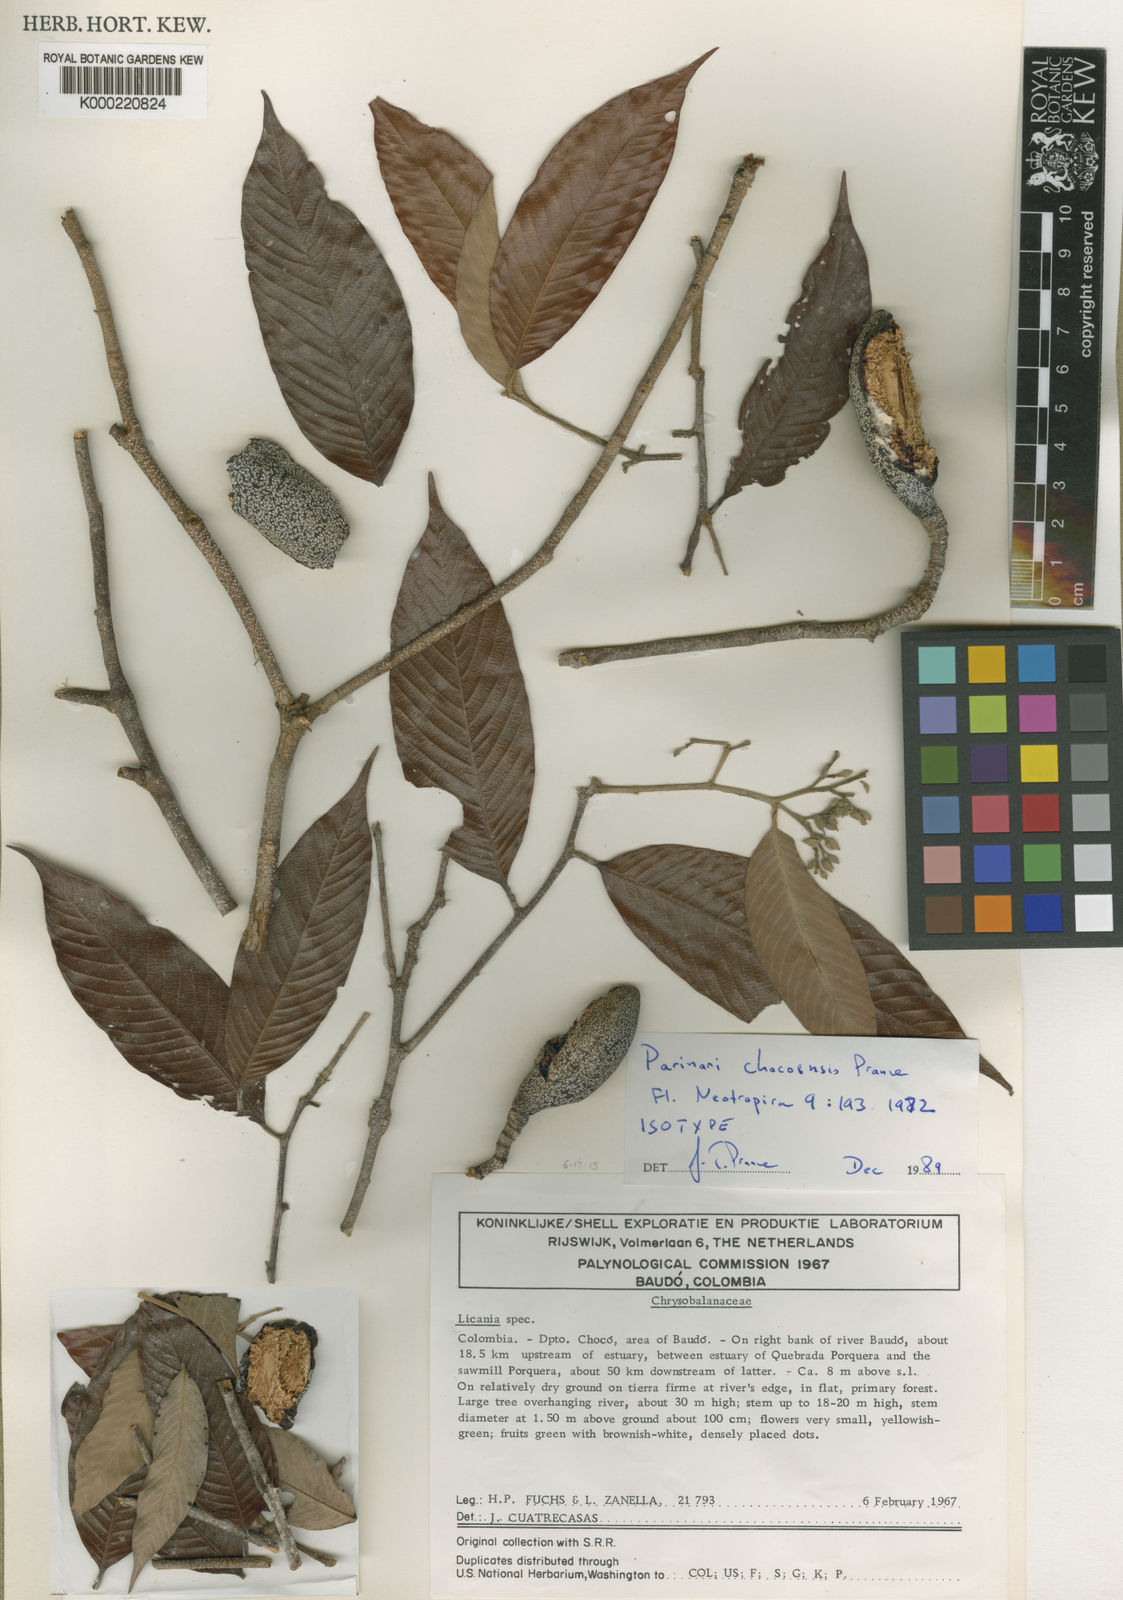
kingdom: Plantae
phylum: Tracheophyta
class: Magnoliopsida
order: Malpighiales
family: Chrysobalanaceae
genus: Parinari
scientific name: Parinari chocoensis
